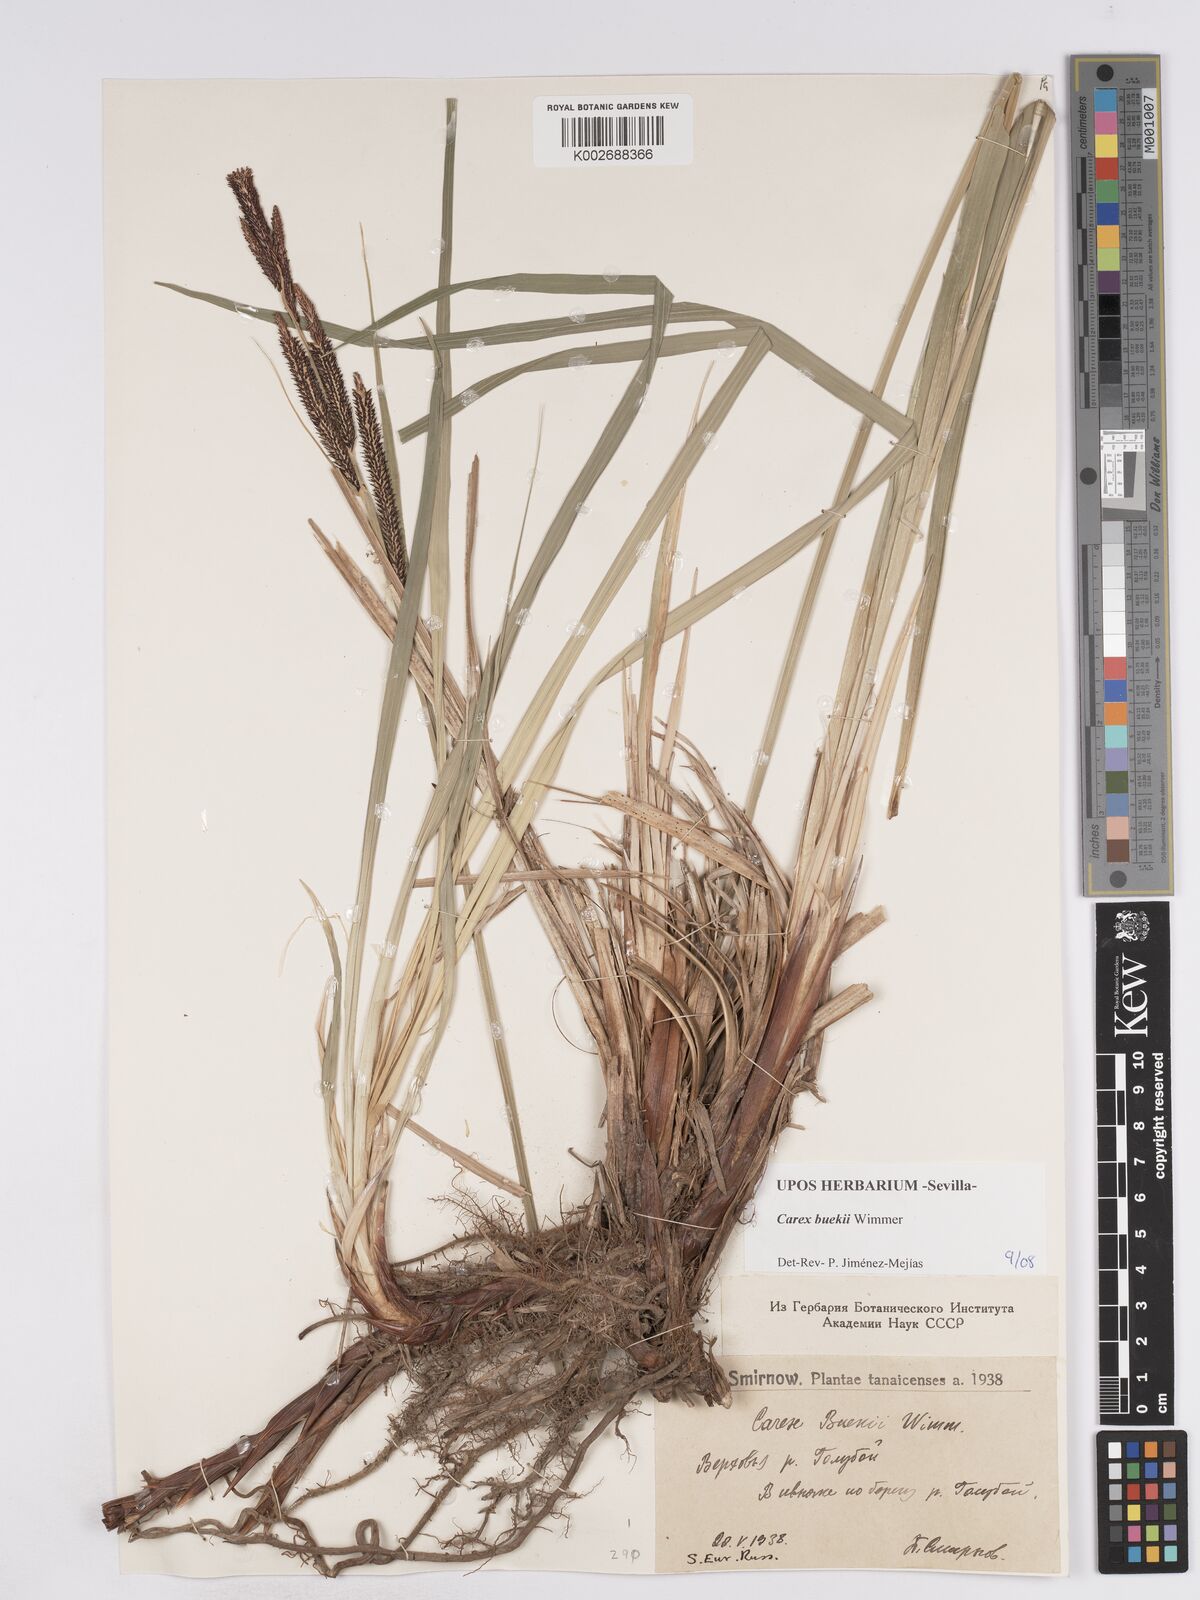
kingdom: Plantae
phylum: Tracheophyta
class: Liliopsida
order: Poales
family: Cyperaceae
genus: Carex
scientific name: Carex buekii
